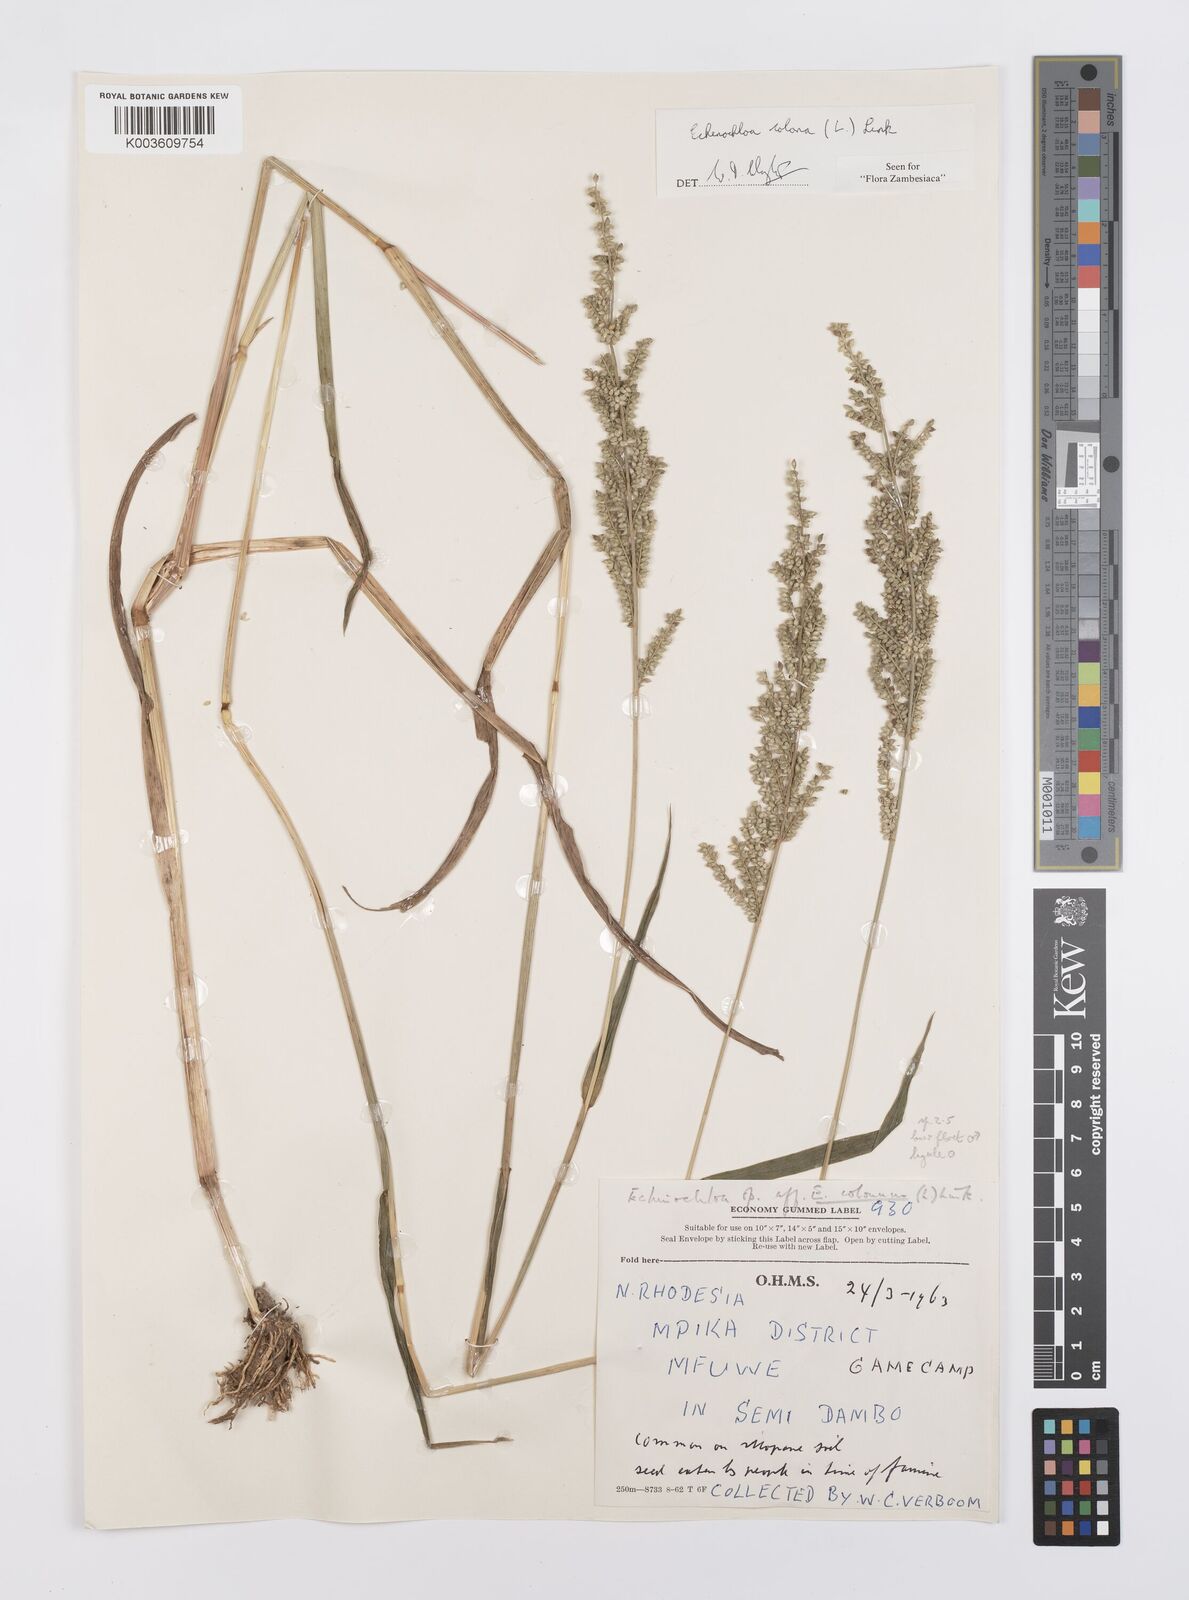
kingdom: Plantae
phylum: Tracheophyta
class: Liliopsida
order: Poales
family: Poaceae
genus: Echinochloa
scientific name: Echinochloa colonum
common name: Jungle rice
